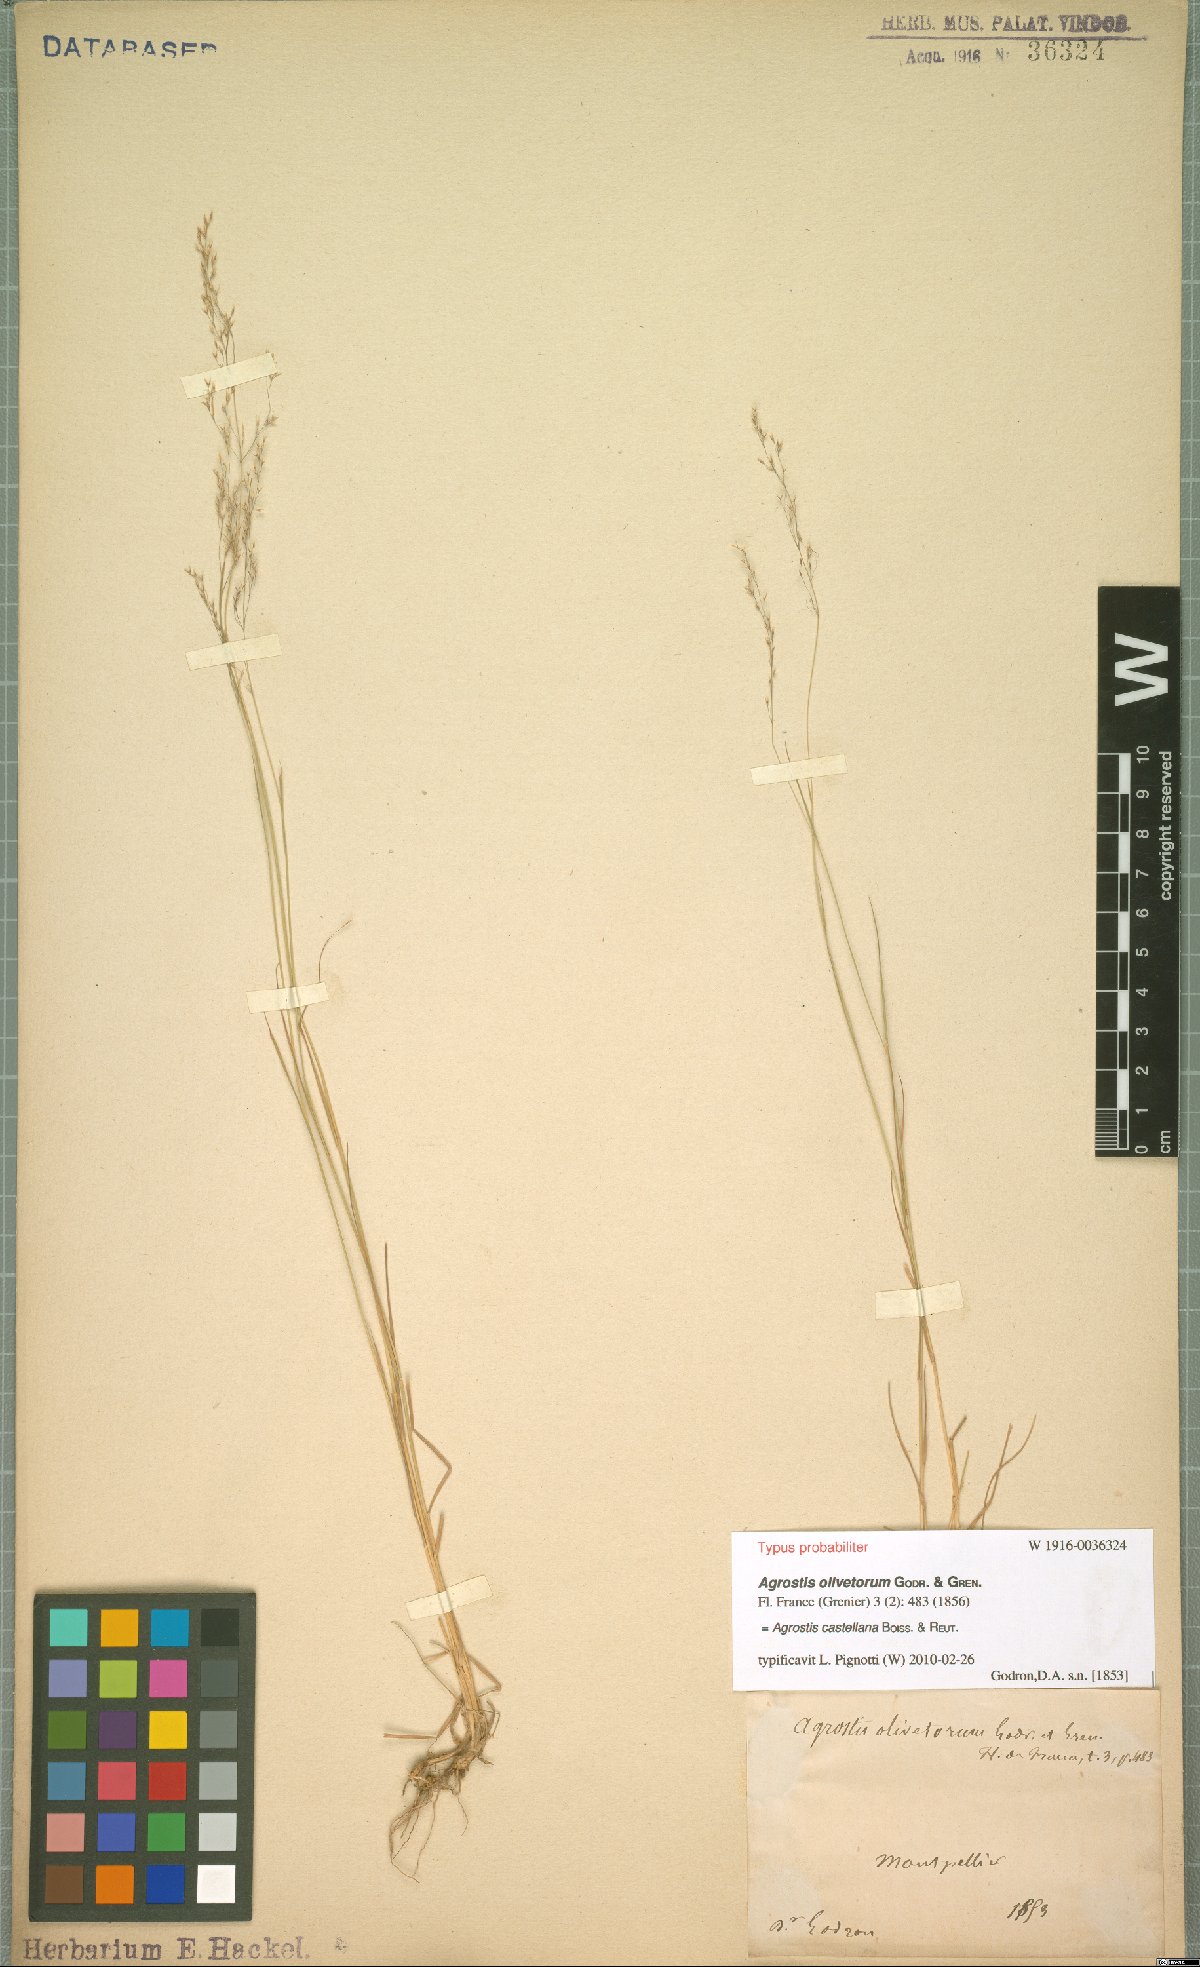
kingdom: Plantae
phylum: Tracheophyta
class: Liliopsida
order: Poales
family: Poaceae
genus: Agrostis
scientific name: Agrostis castellana
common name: Highland bent
